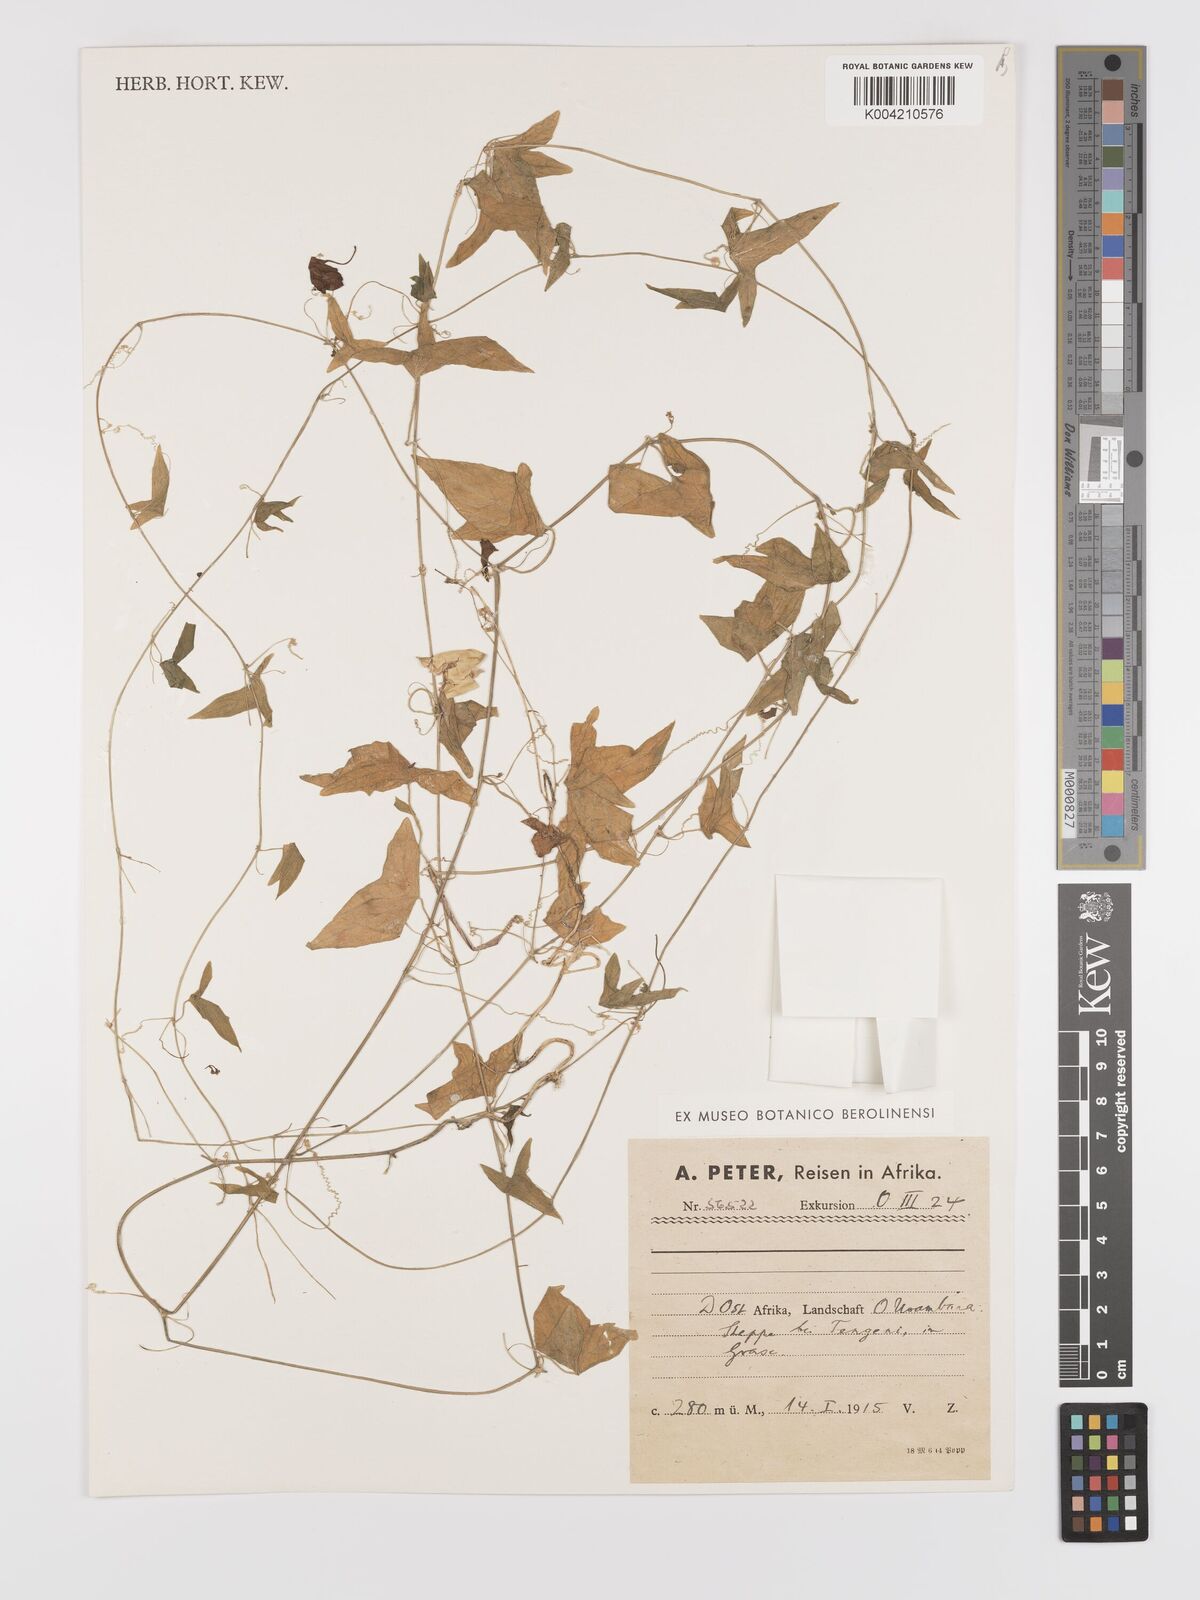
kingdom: Plantae
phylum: Tracheophyta
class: Magnoliopsida
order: Cucurbitales
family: Cucurbitaceae
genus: Zehneria
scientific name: Zehneria thwaitesii
